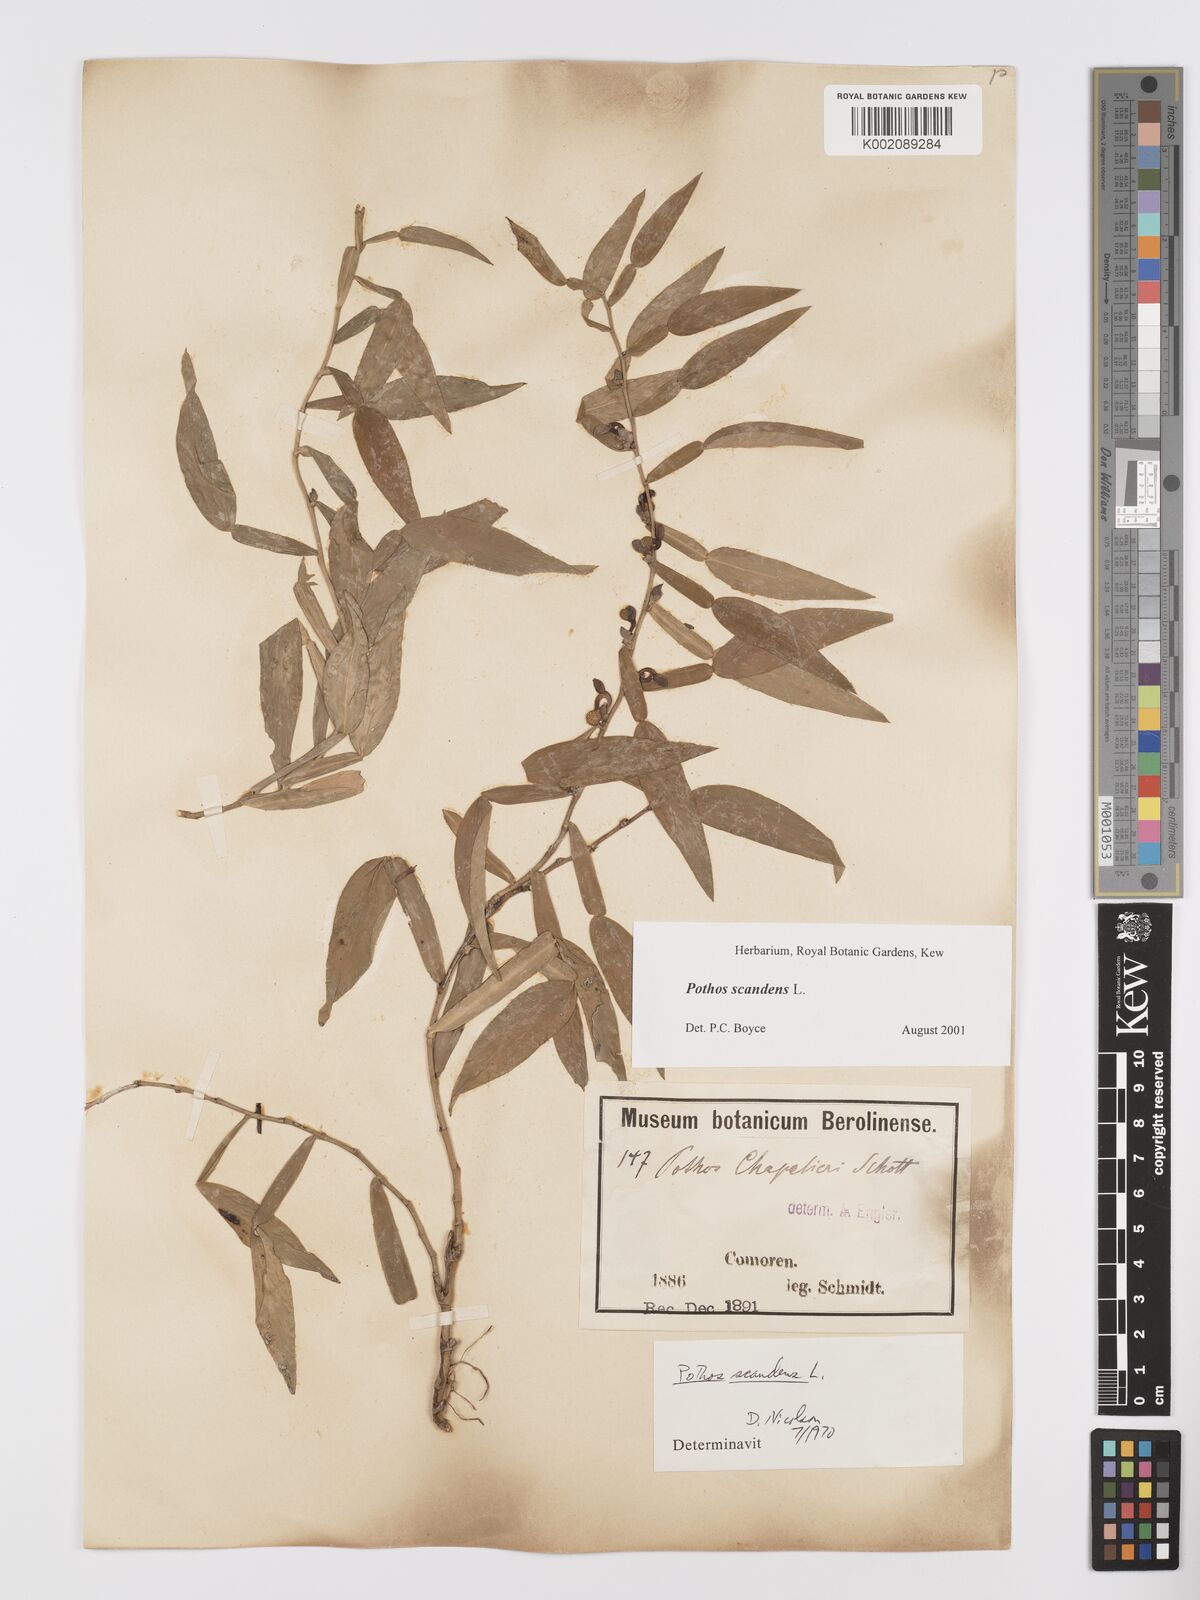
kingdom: Plantae
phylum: Tracheophyta
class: Liliopsida
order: Alismatales
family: Araceae
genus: Pothos
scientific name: Pothos scandens
